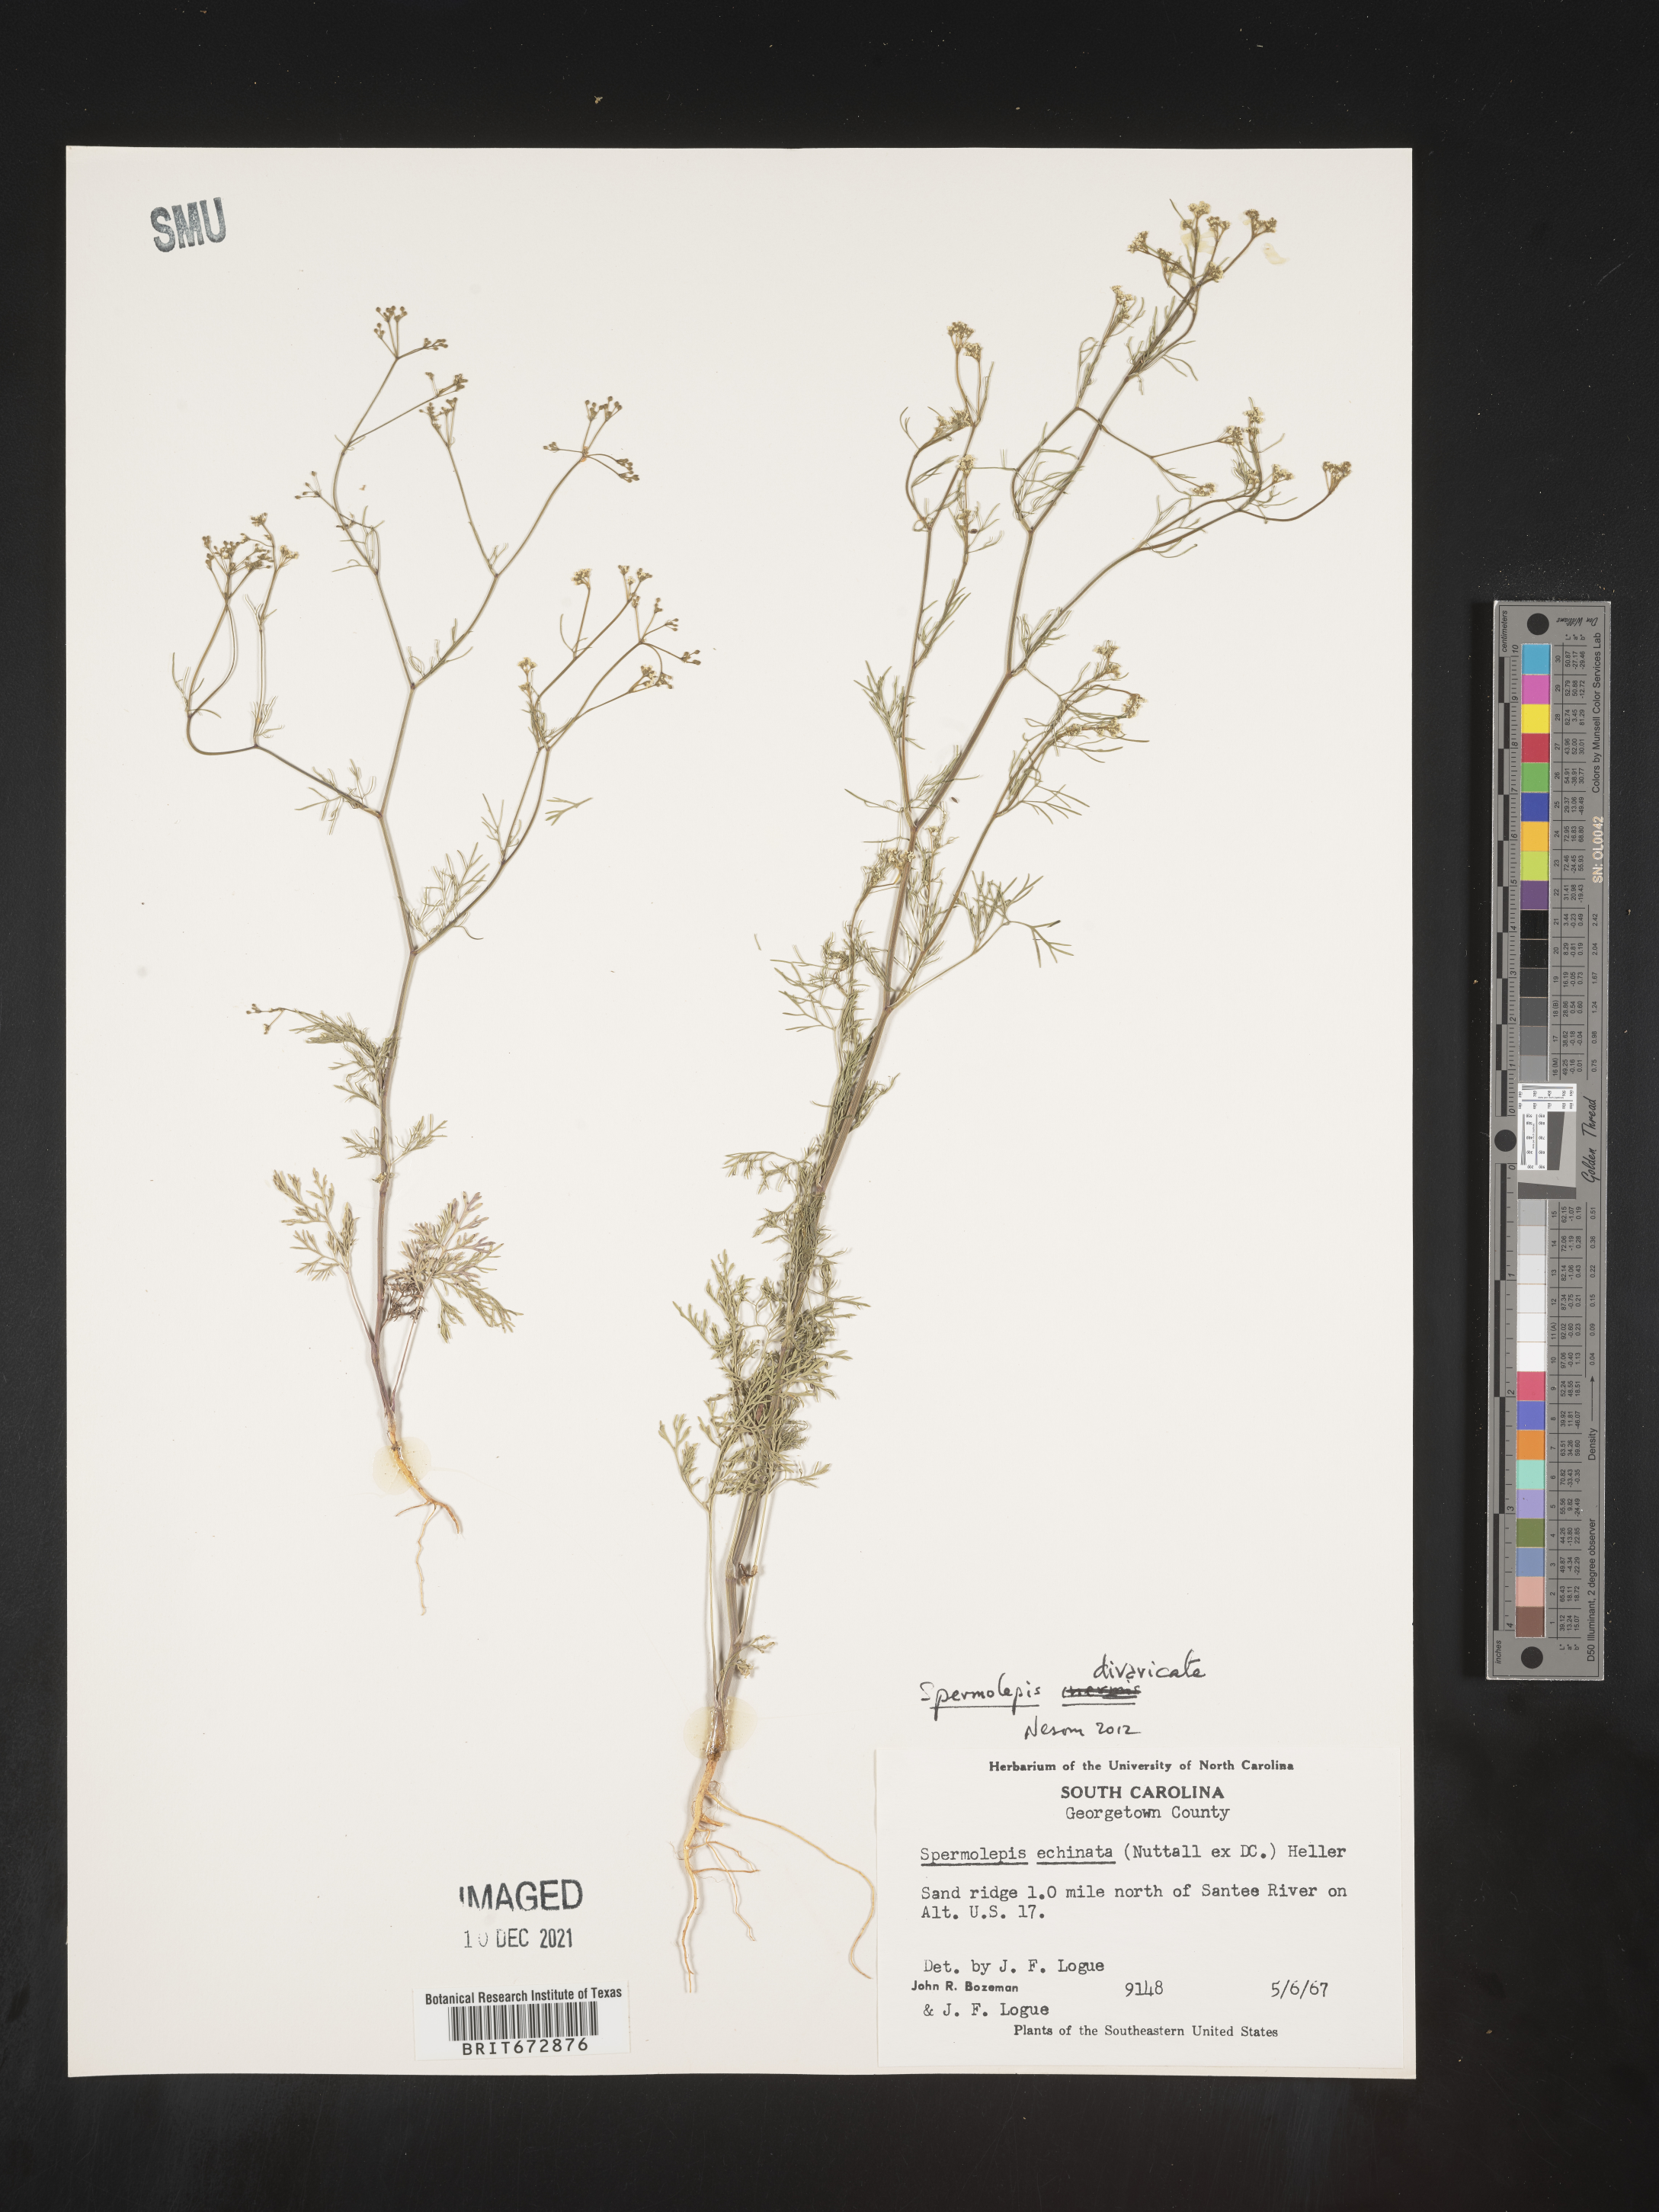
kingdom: Plantae
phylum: Tracheophyta
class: Magnoliopsida
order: Apiales
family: Apiaceae
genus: Spermolepis
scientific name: Spermolepis divaricata
